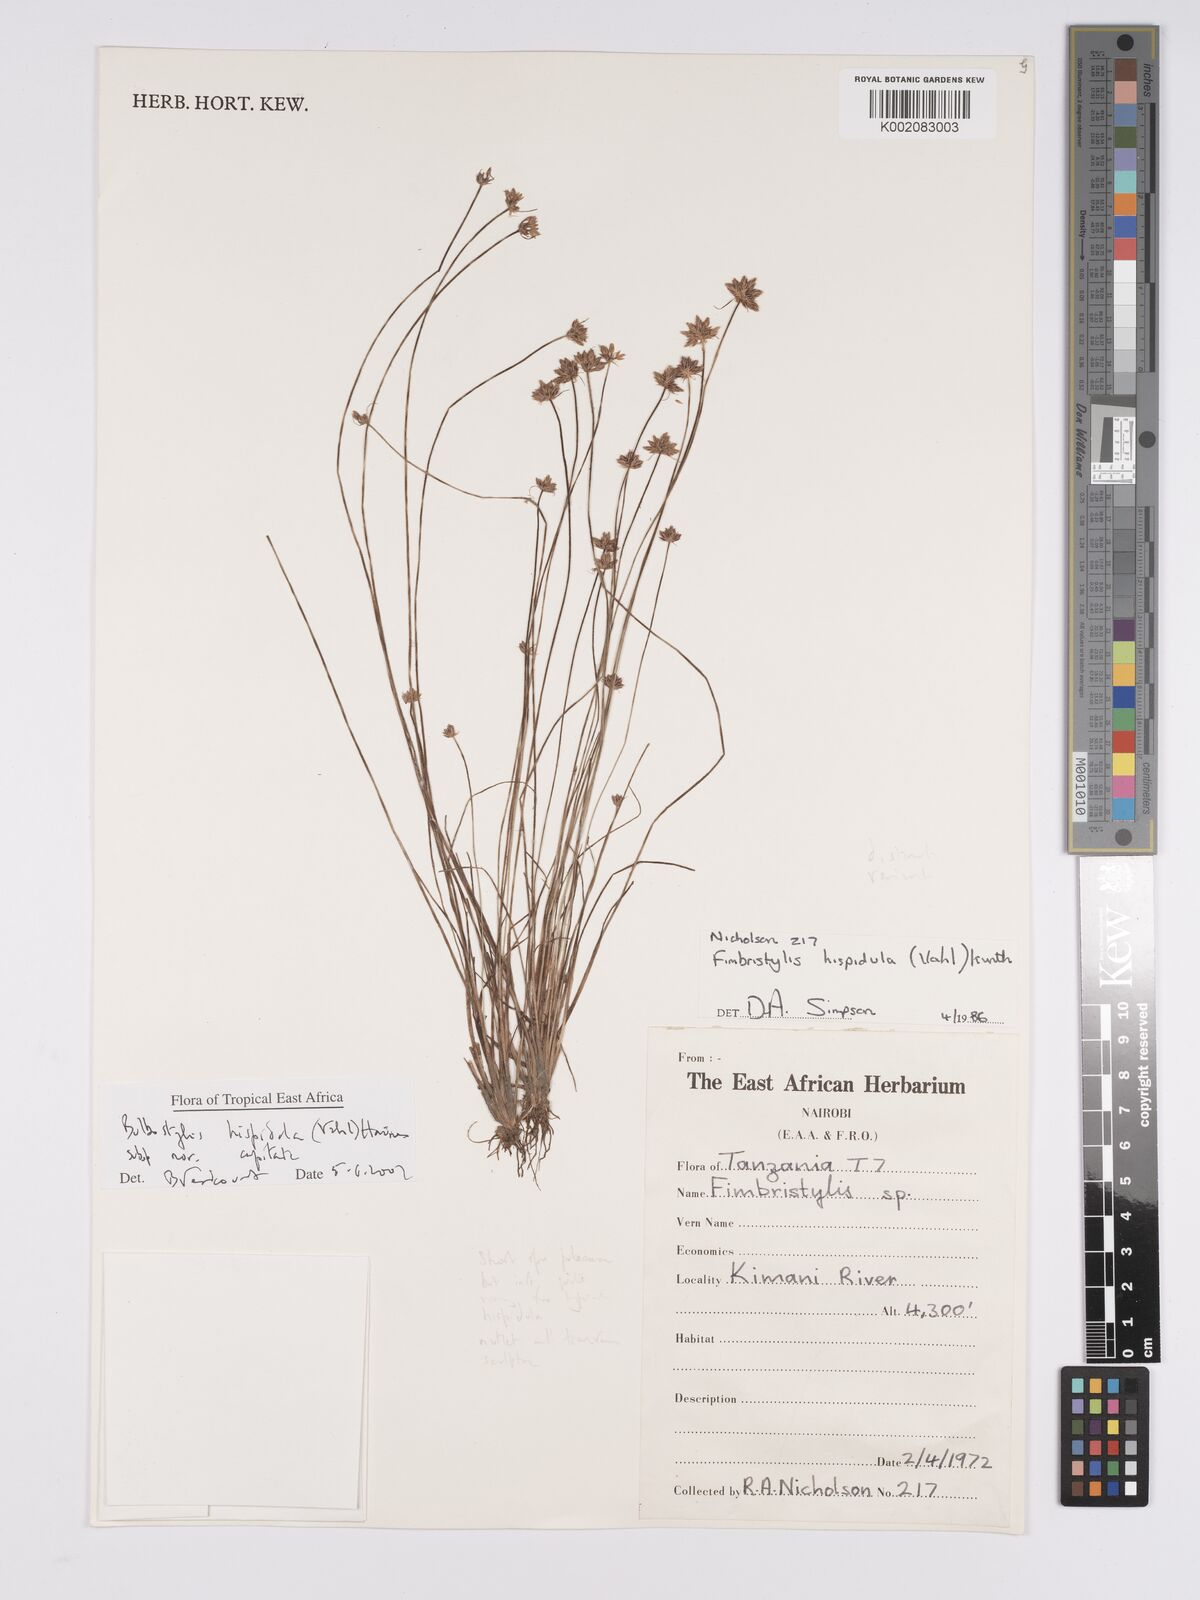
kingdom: Plantae
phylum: Tracheophyta
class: Liliopsida
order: Poales
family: Cyperaceae
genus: Bulbostylis
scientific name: Bulbostylis hispidula
